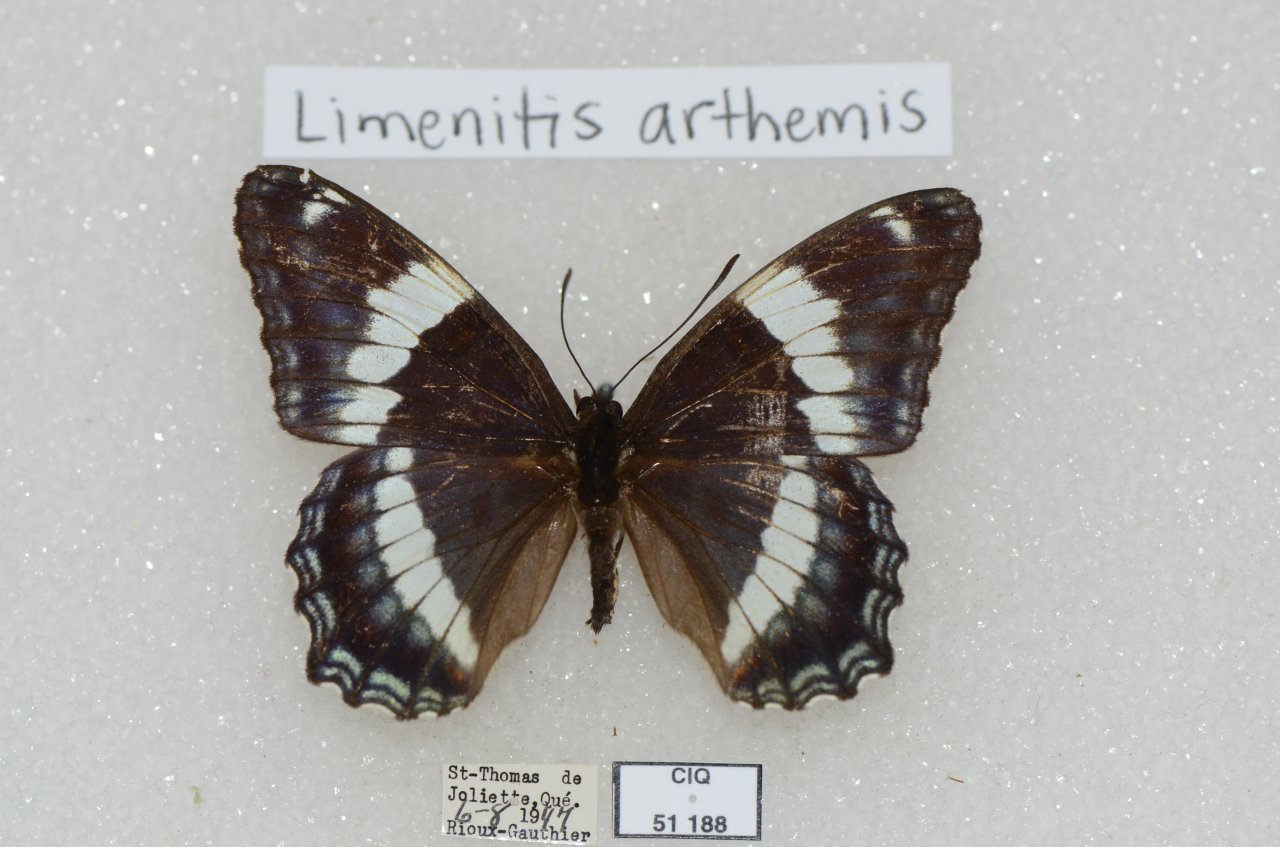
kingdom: Animalia
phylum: Arthropoda
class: Insecta
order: Lepidoptera
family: Nymphalidae
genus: Limenitis
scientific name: Limenitis arthemis
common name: Red-spotted Admiral
